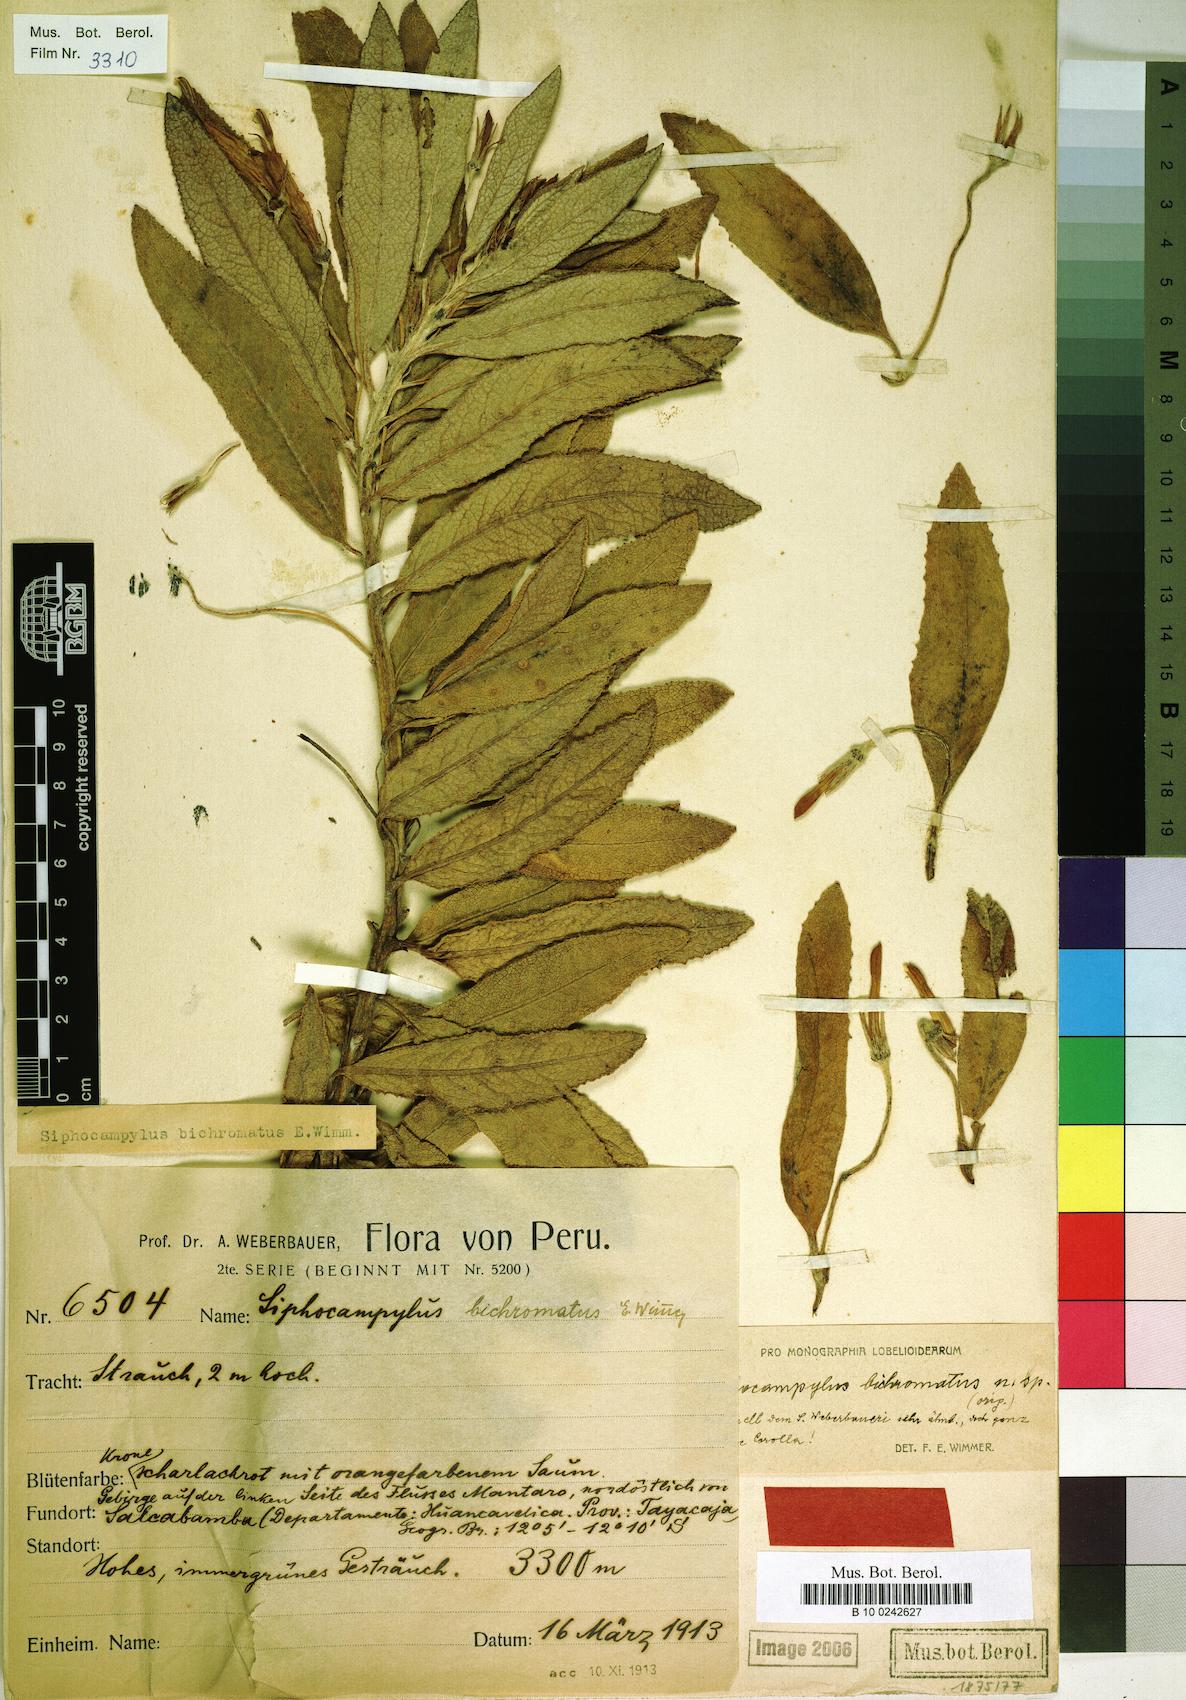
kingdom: Plantae
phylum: Tracheophyta
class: Magnoliopsida
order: Asterales
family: Campanulaceae
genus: Siphocampylus
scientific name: Siphocampylus bichromatus
